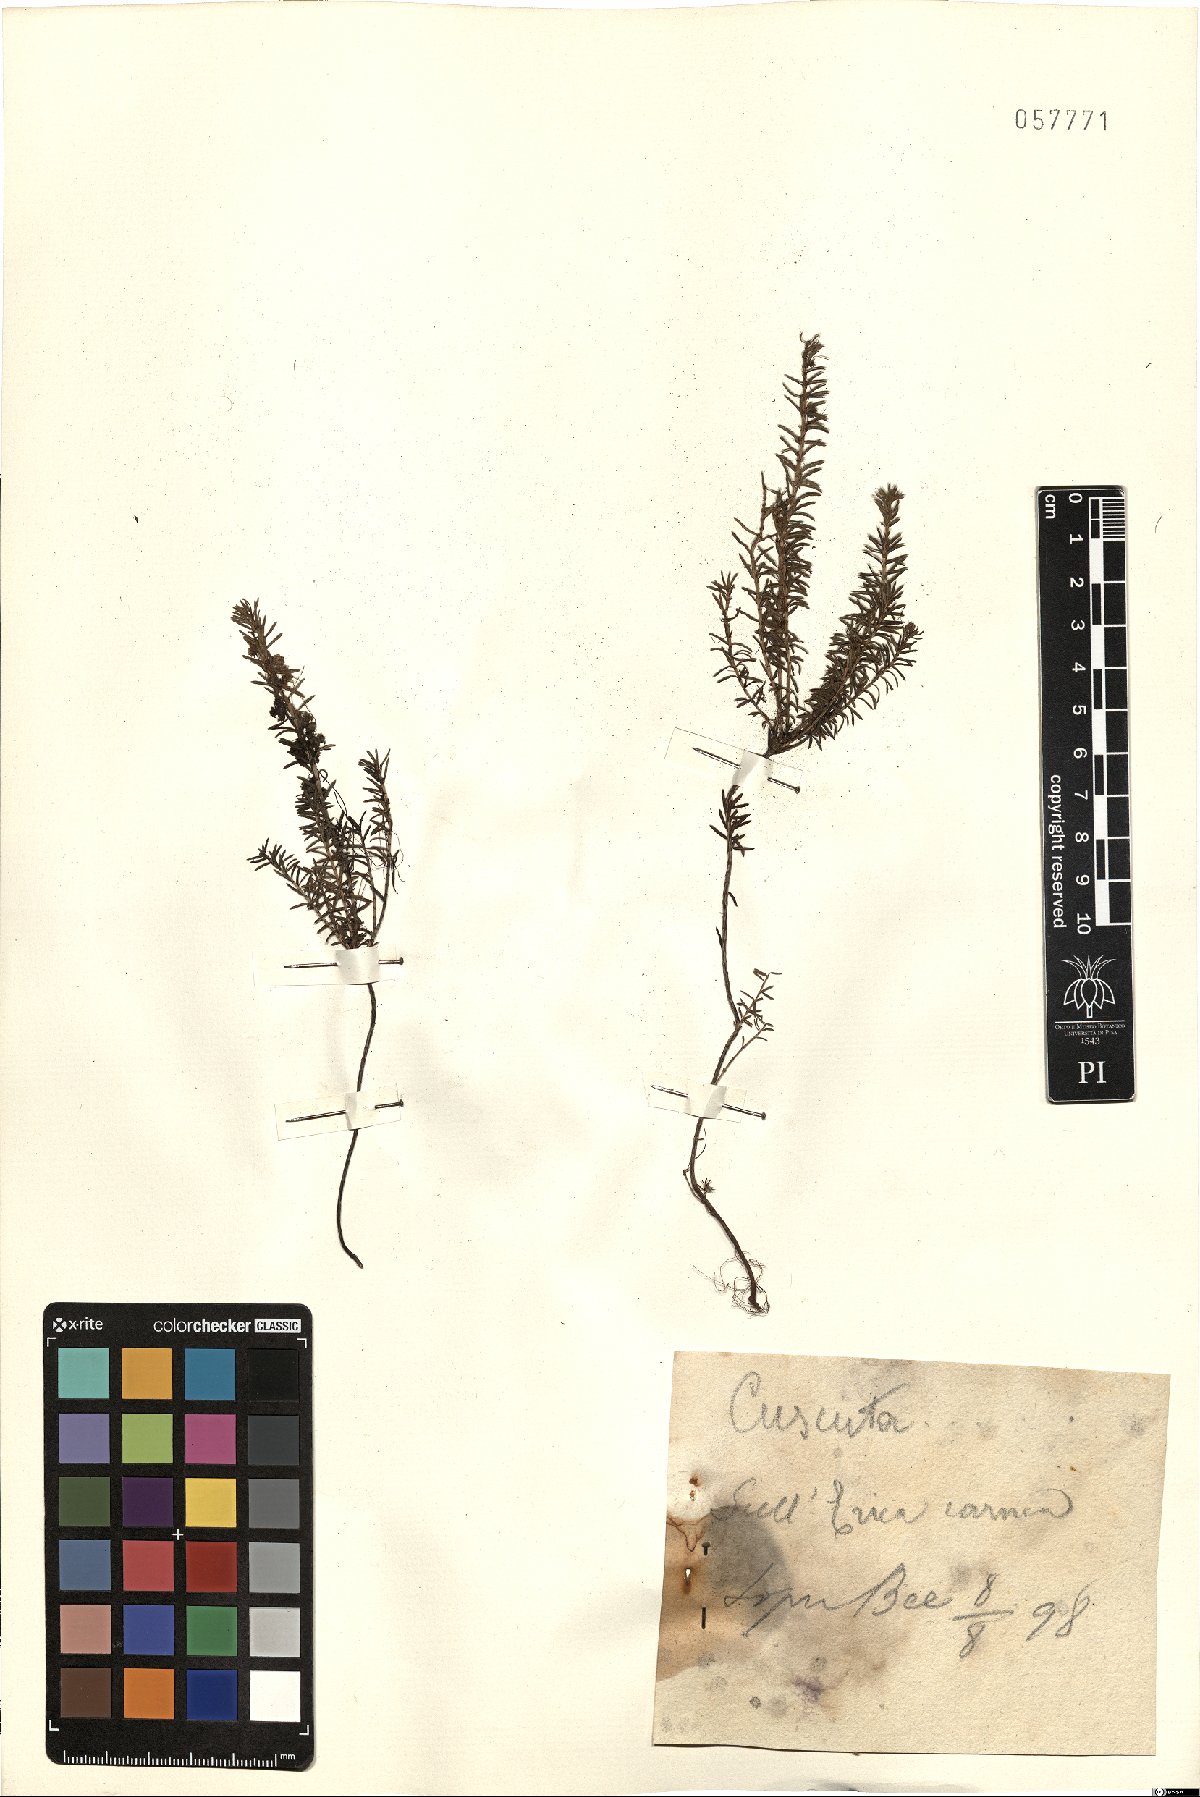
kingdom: Plantae
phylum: Tracheophyta
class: Magnoliopsida
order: Solanales
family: Convolvulaceae
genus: Cuscuta
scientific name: Cuscuta
